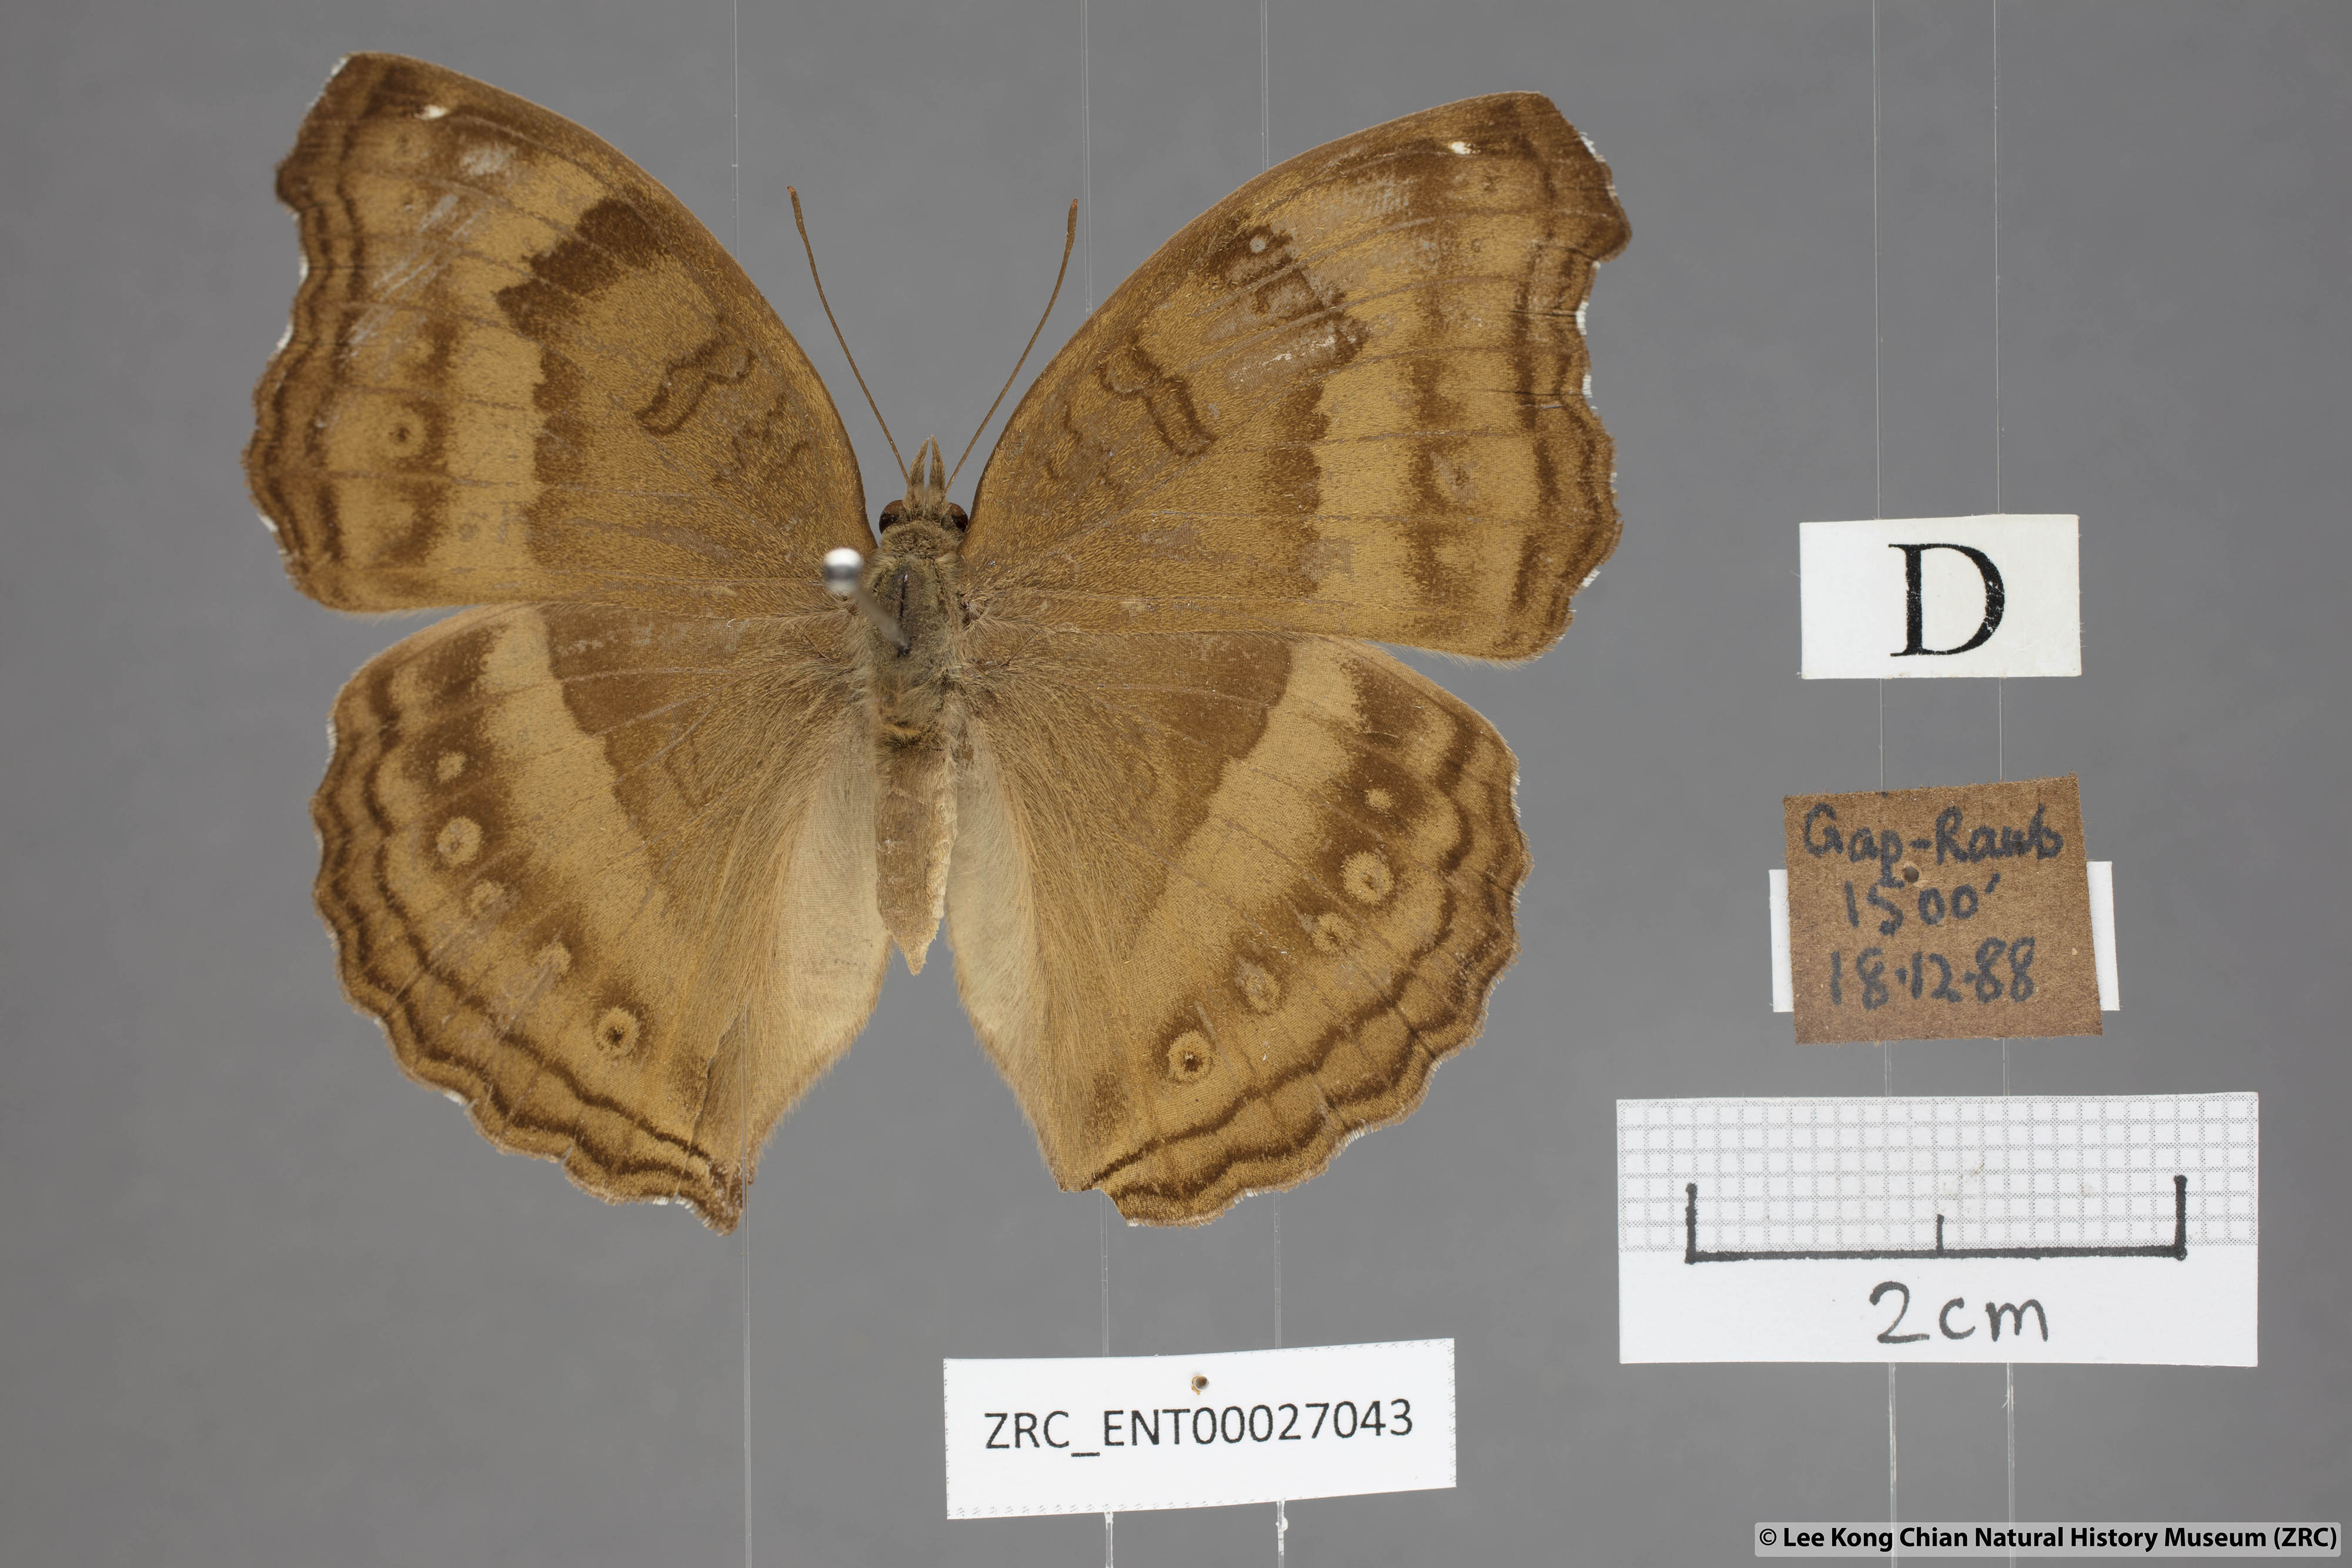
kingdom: Animalia
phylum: Arthropoda
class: Insecta
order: Lepidoptera
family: Nymphalidae
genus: Junonia
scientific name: Junonia iphita
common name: Chocolate pansy
